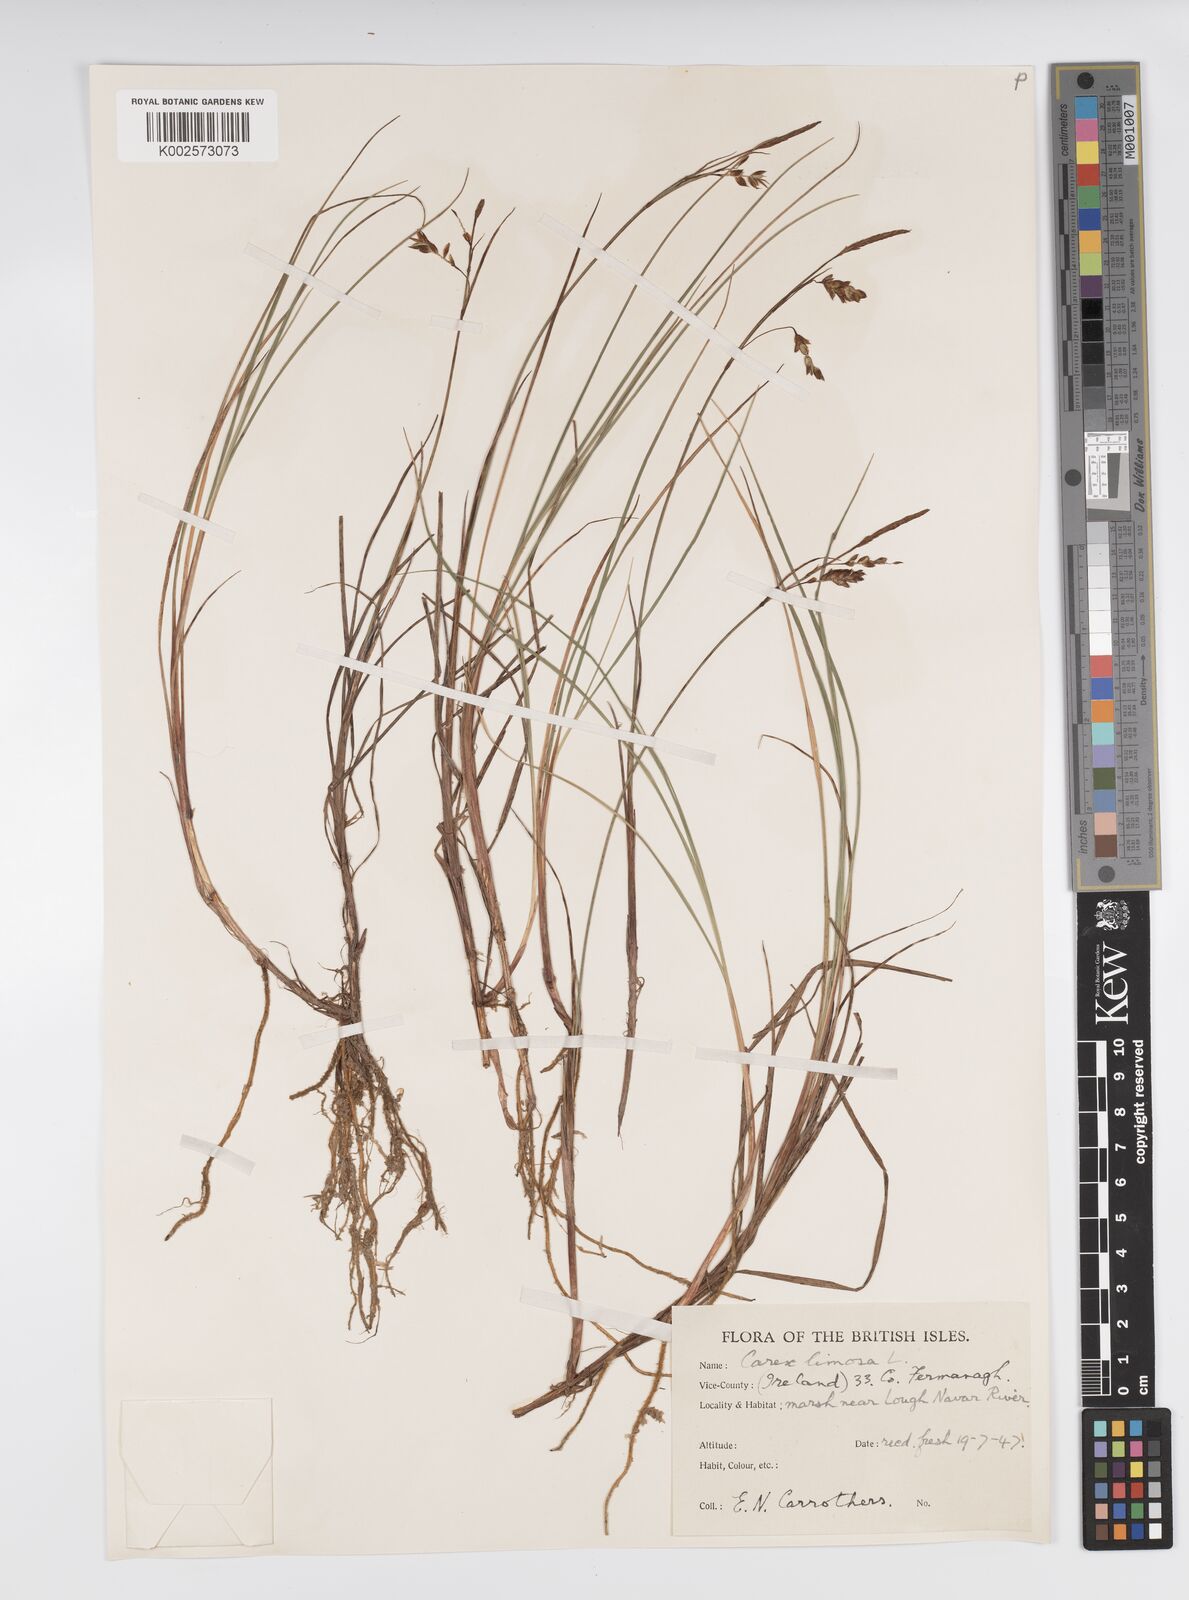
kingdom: Plantae
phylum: Tracheophyta
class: Liliopsida
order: Poales
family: Cyperaceae
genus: Carex
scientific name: Carex limosa
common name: Bog sedge
